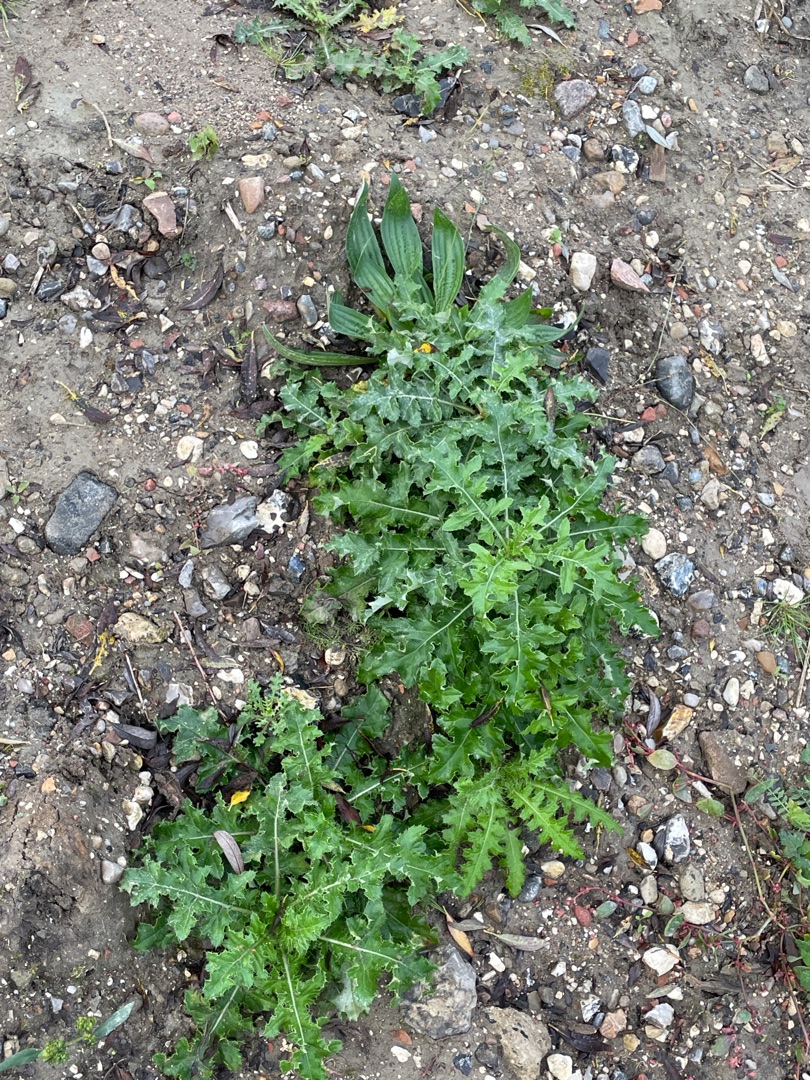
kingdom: Plantae
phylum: Tracheophyta
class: Magnoliopsida
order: Asterales
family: Asteraceae
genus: Cirsium
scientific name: Cirsium arvense
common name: Ager-tidsel
